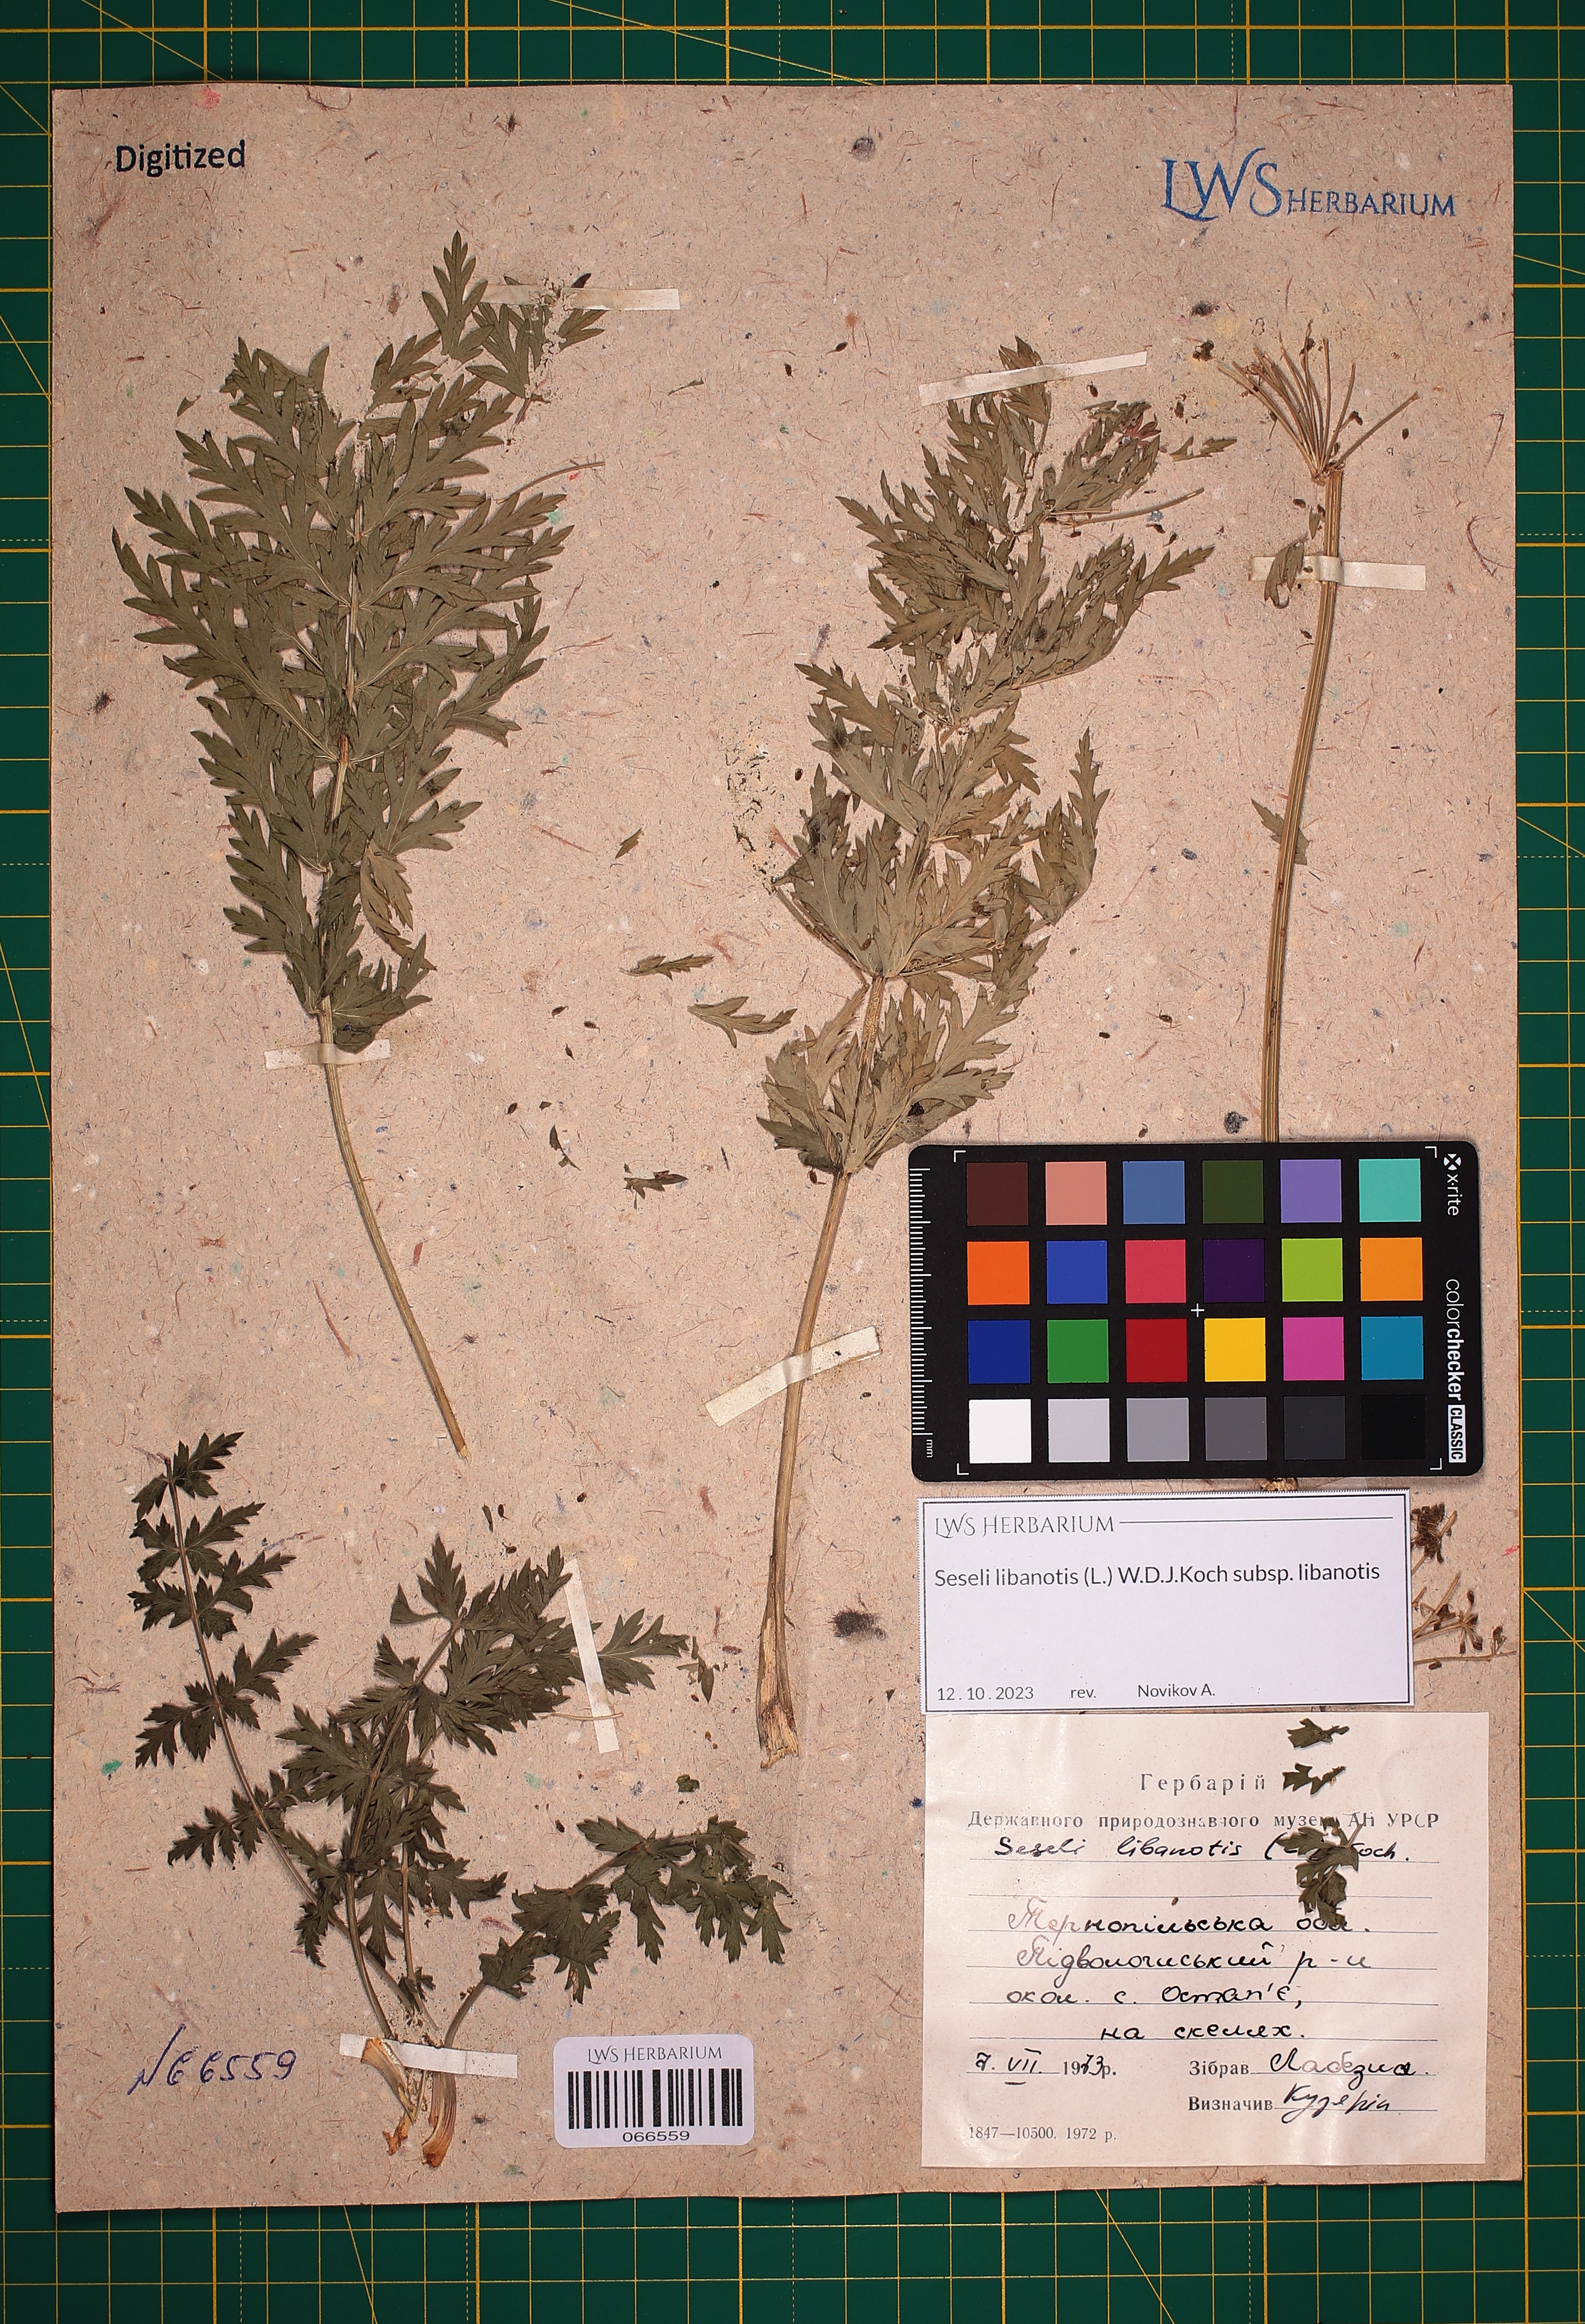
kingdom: Plantae
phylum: Tracheophyta
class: Magnoliopsida
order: Apiales
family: Apiaceae
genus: Seseli
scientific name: Seseli libanotis
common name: Mooncarrot
